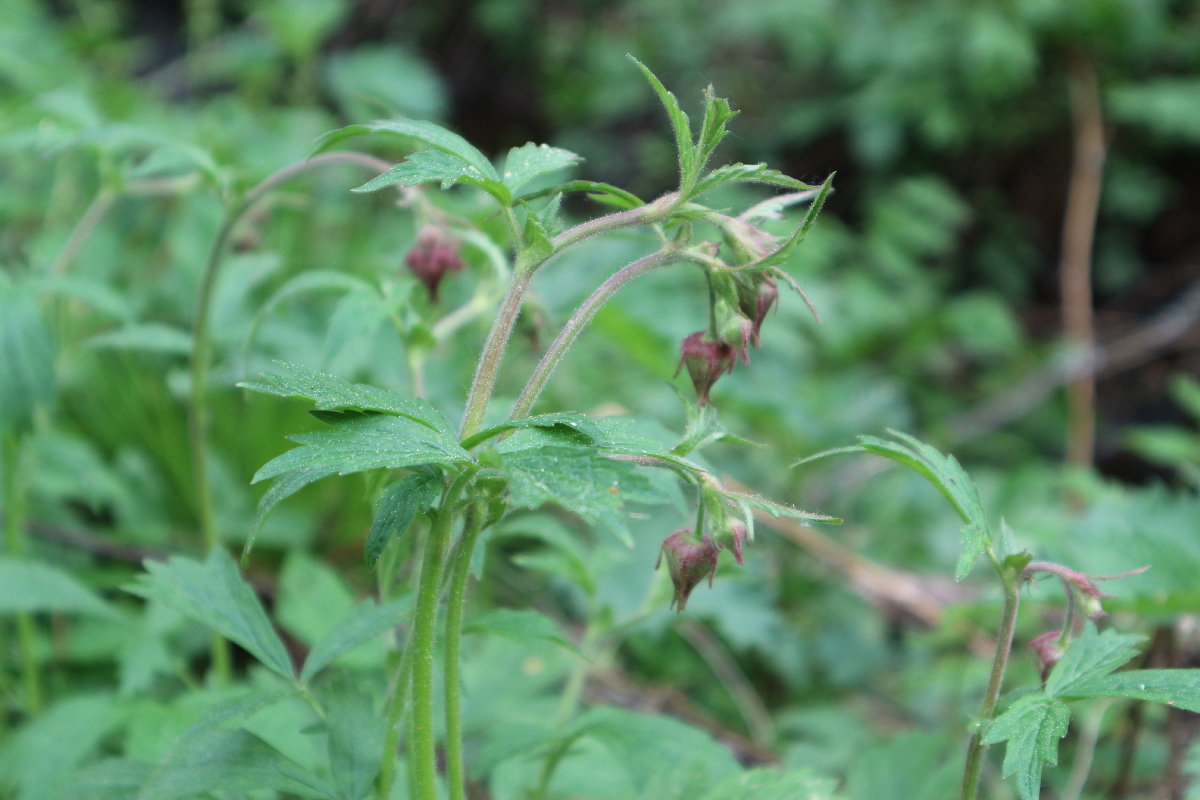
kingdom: Plantae
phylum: Tracheophyta
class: Magnoliopsida
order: Rosales
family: Rosaceae
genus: Geum
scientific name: Geum rivale
